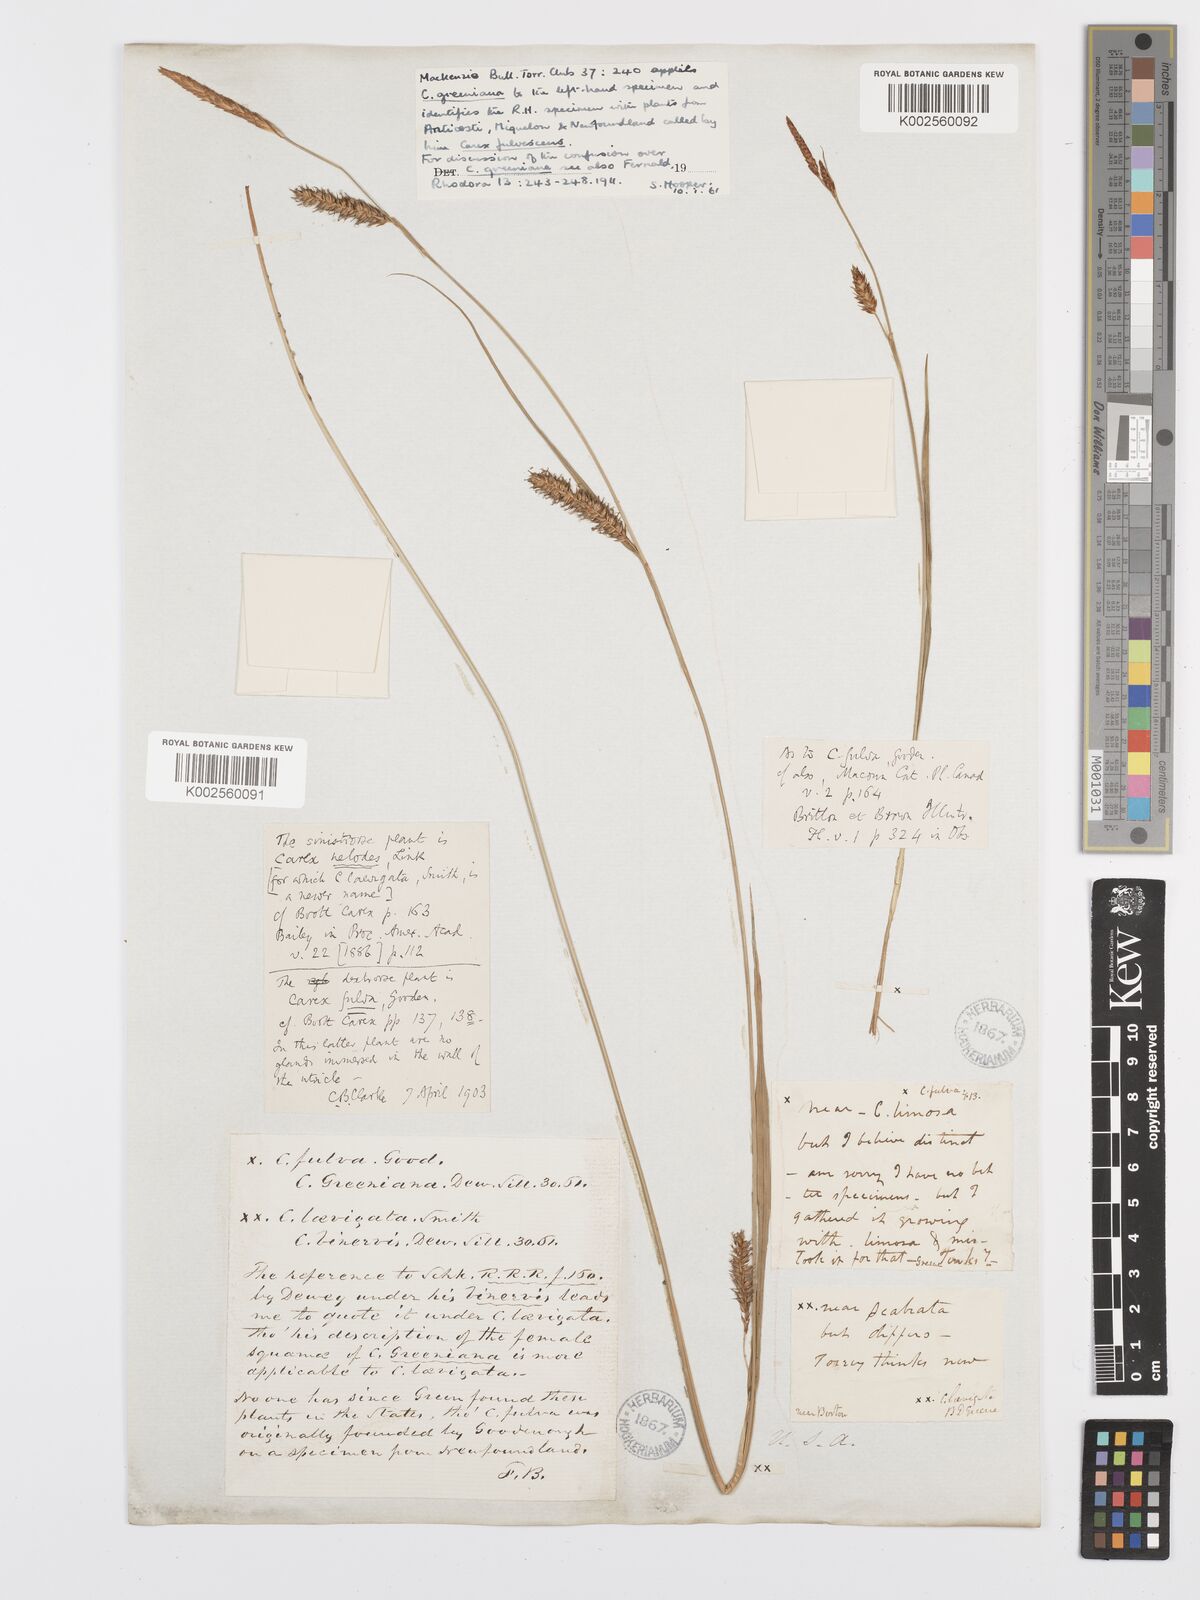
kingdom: Plantae
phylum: Tracheophyta
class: Liliopsida
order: Poales
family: Cyperaceae
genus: Carex
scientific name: Carex hostiana
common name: Tawny sedge
